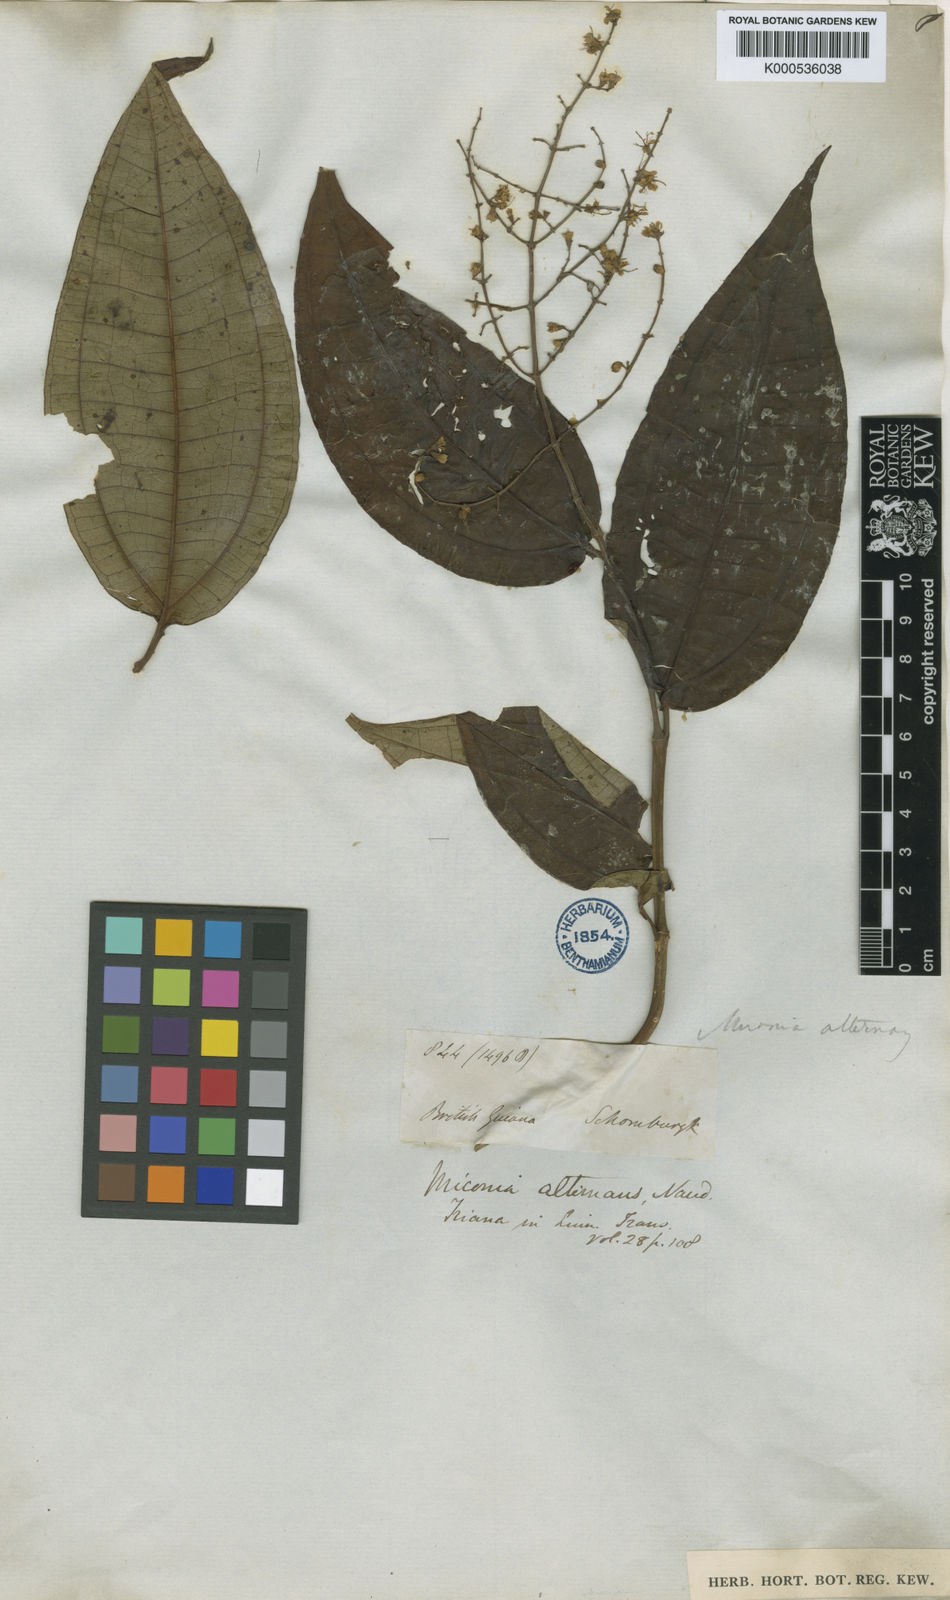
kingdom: Plantae
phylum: Tracheophyta
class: Magnoliopsida
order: Myrtales
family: Melastomataceae
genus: Miconia
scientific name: Miconia alternans
